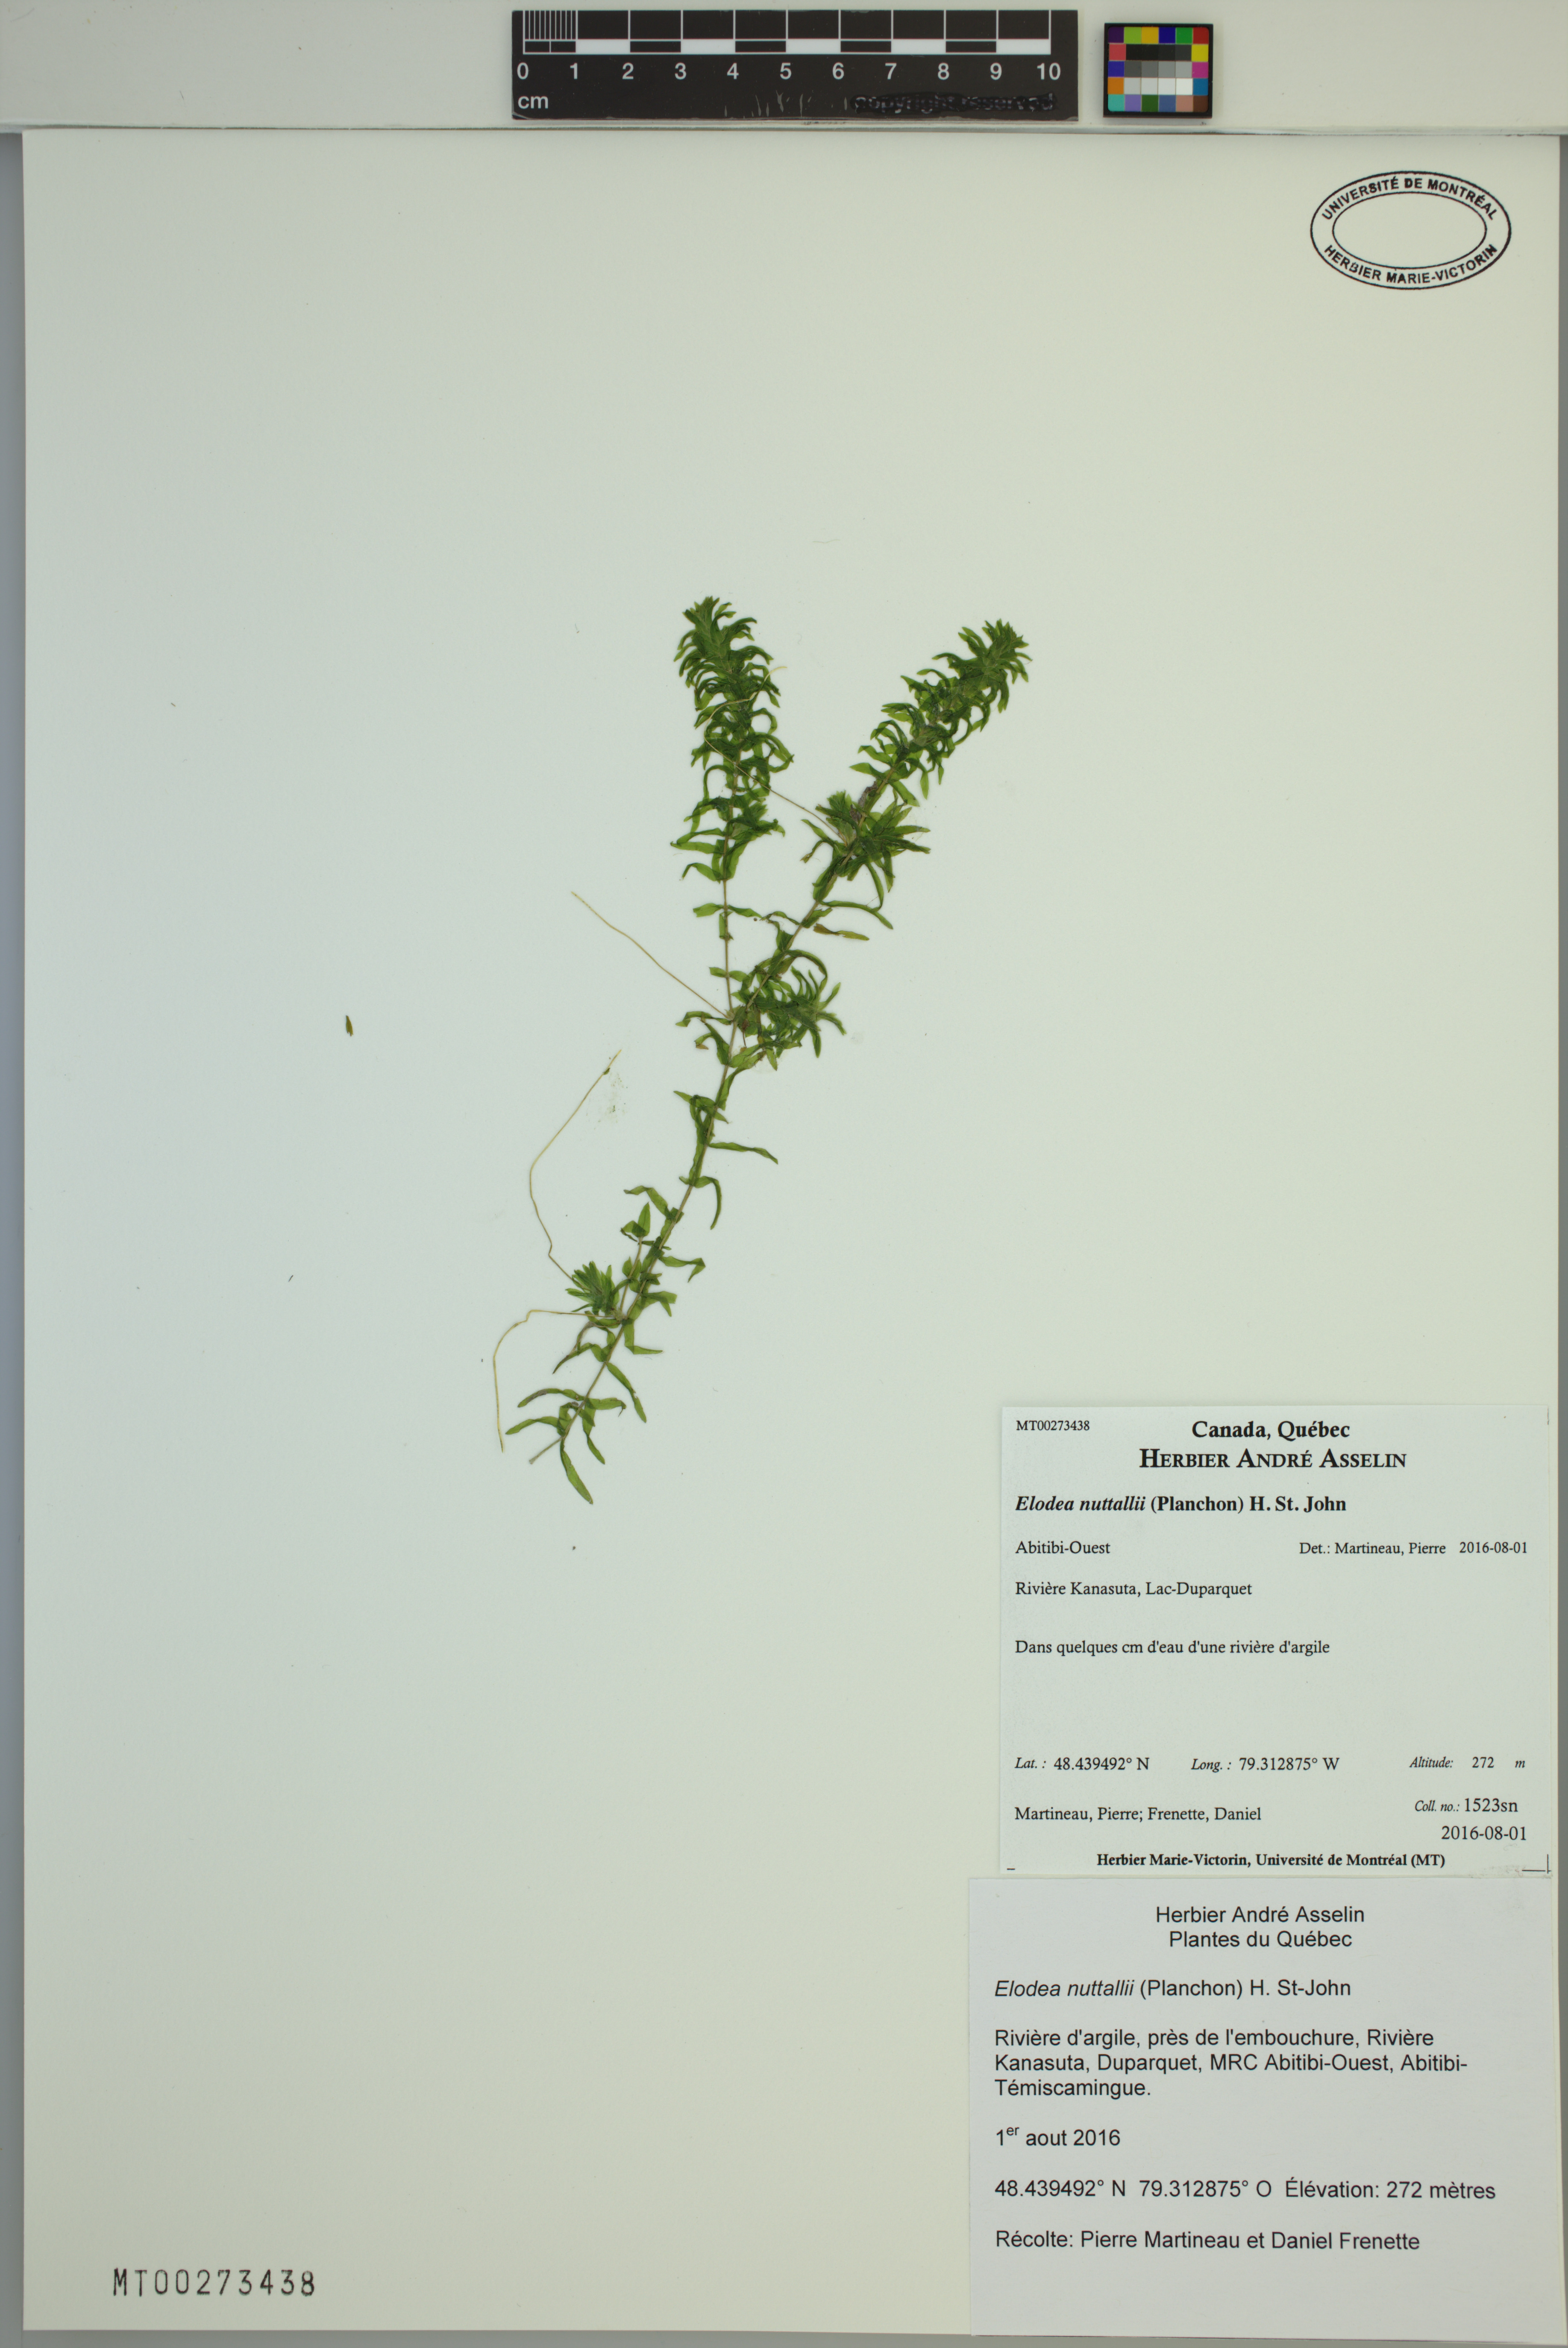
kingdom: Plantae
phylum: Tracheophyta
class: Liliopsida
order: Alismatales
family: Hydrocharitaceae
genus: Elodea
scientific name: Elodea nuttallii
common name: Nuttall's waterweed
